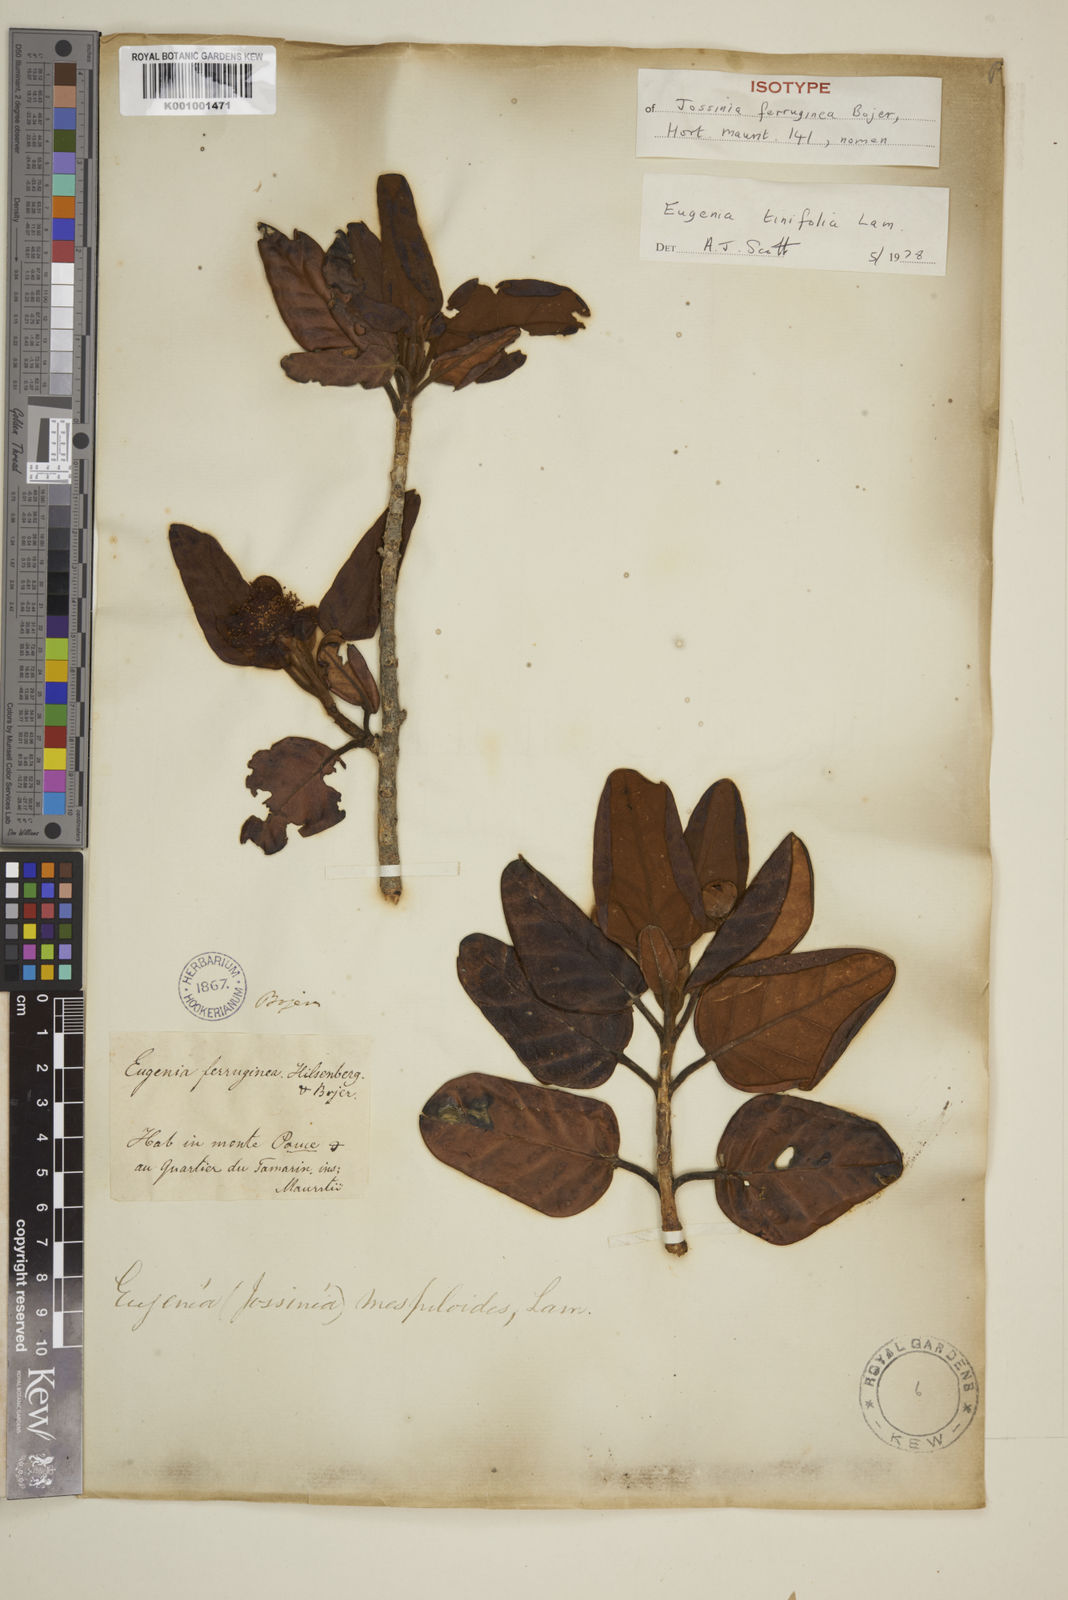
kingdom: Plantae
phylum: Tracheophyta
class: Magnoliopsida
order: Myrtales
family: Myrtaceae
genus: Eugenia
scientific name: Eugenia mespiloides
